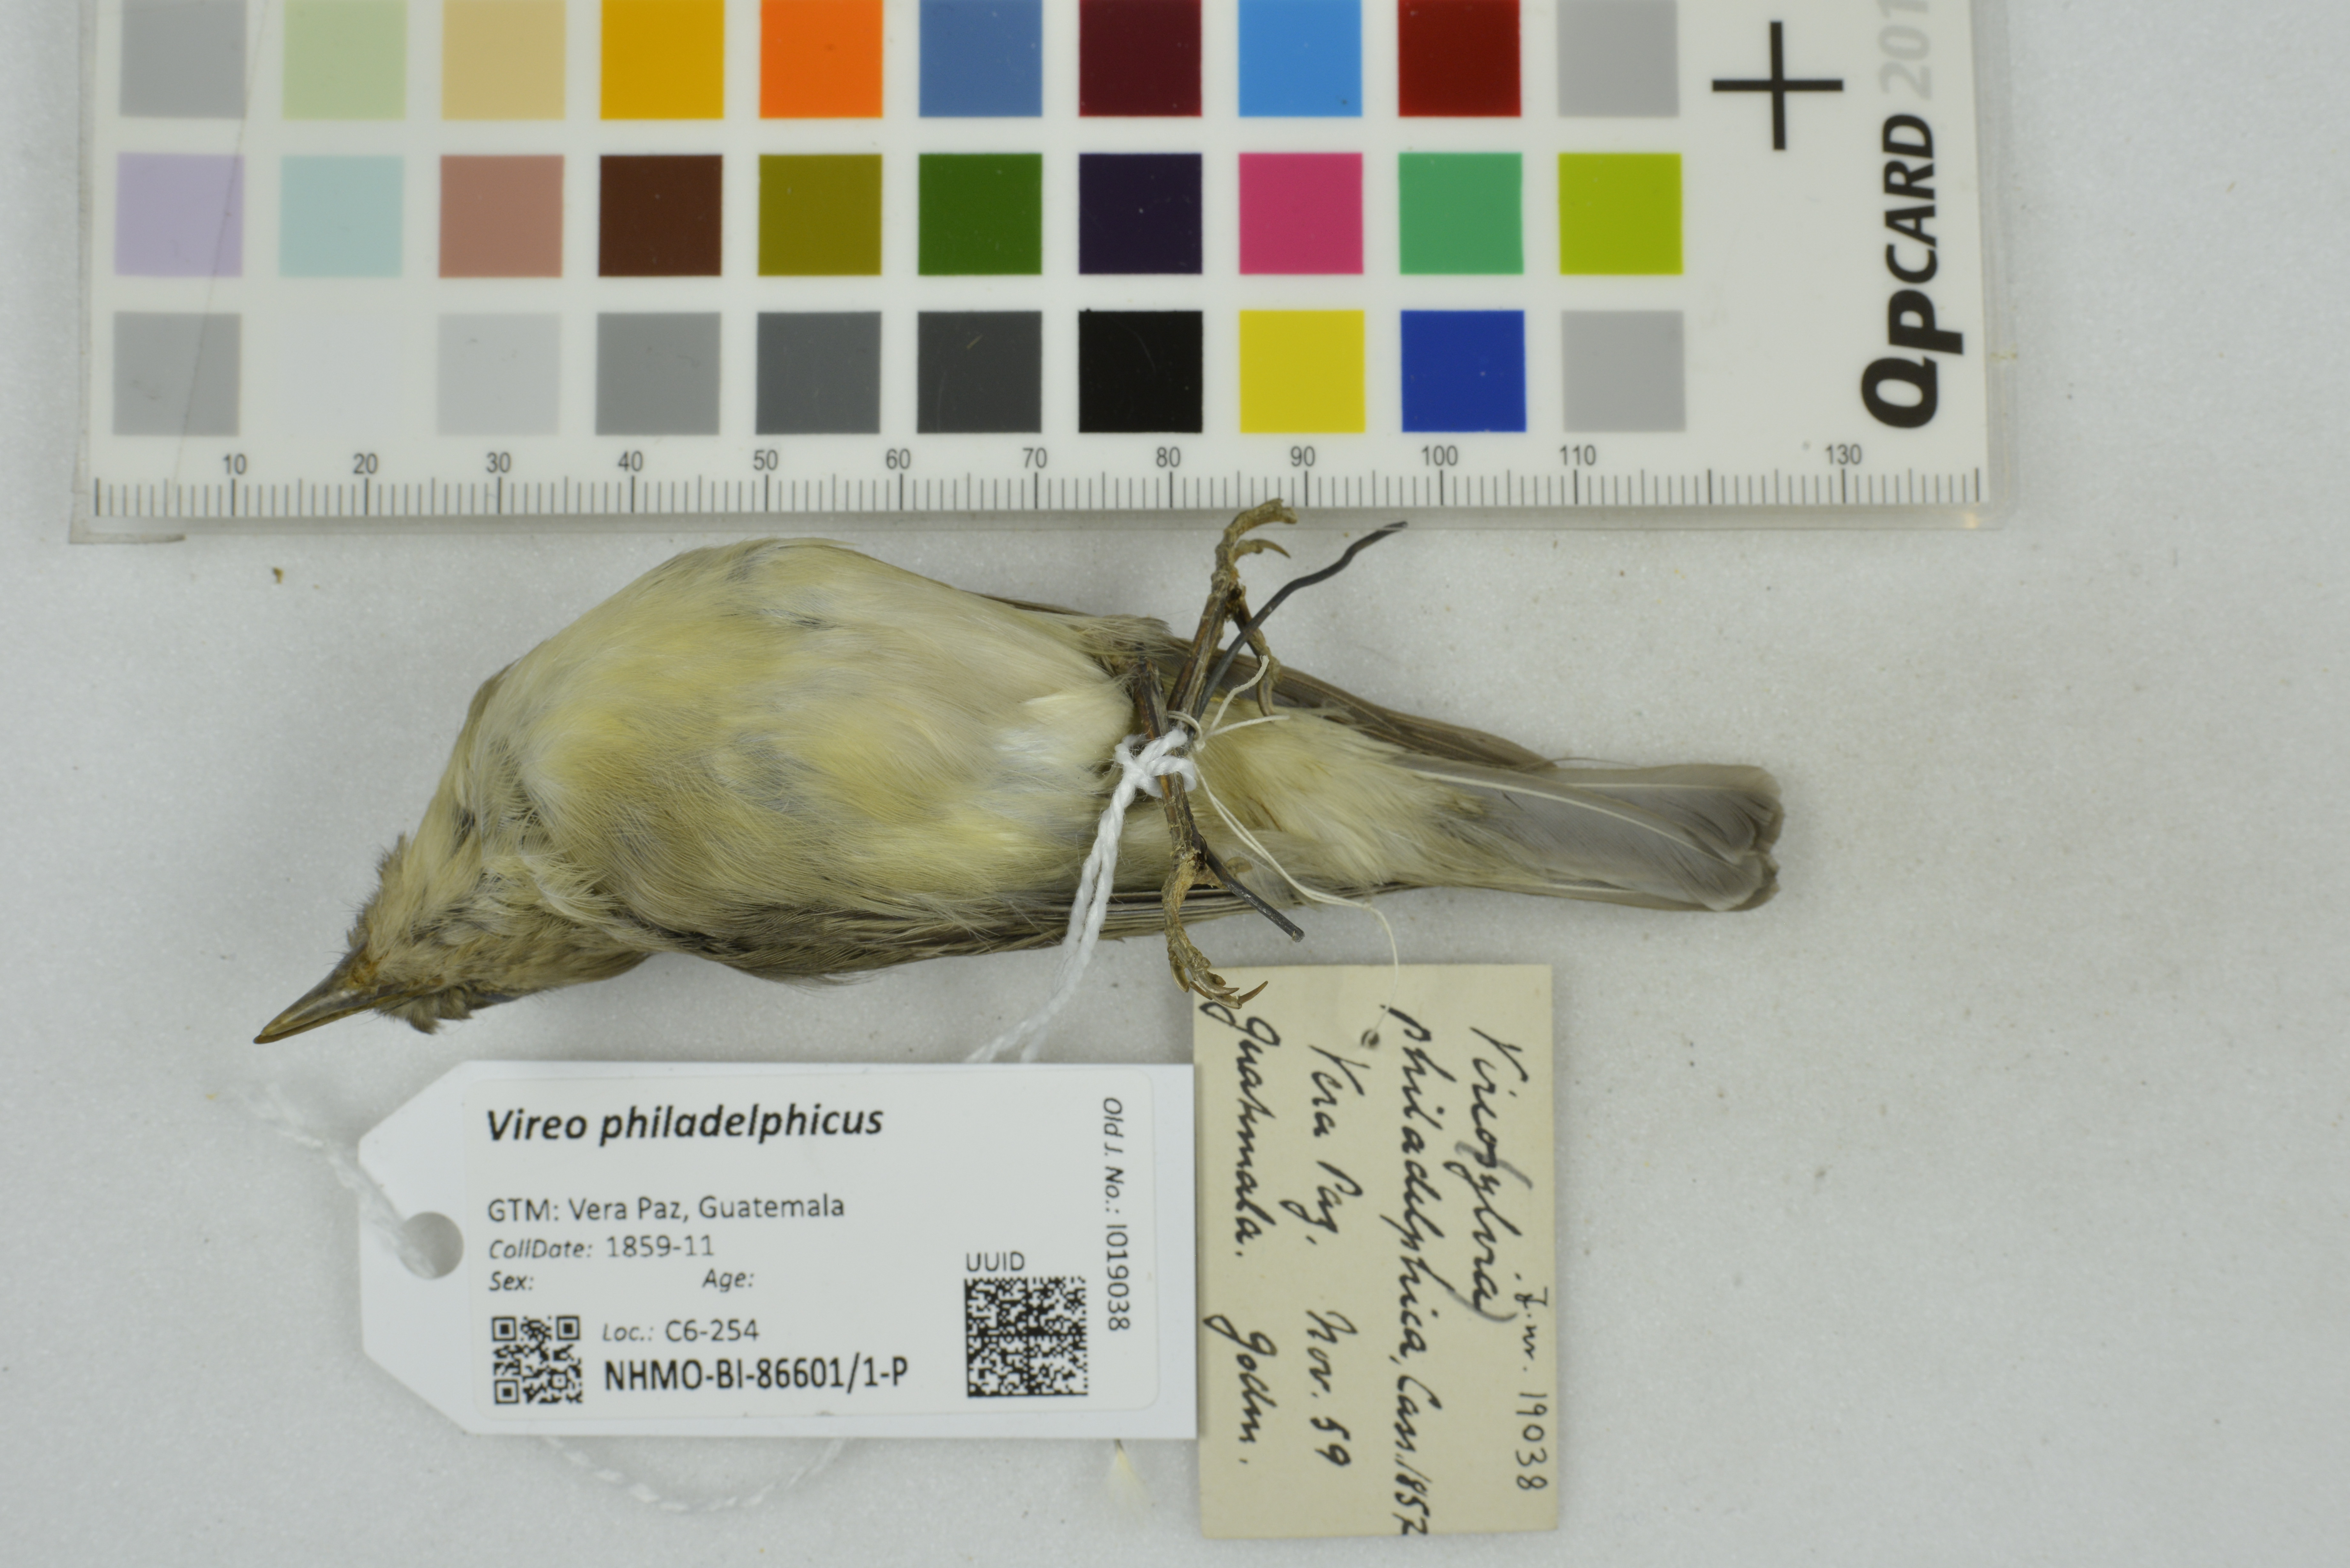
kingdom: Animalia
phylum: Chordata
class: Aves
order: Passeriformes
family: Vireonidae
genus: Vireo
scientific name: Vireo philadelphicus
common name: Philadelphia vireo
